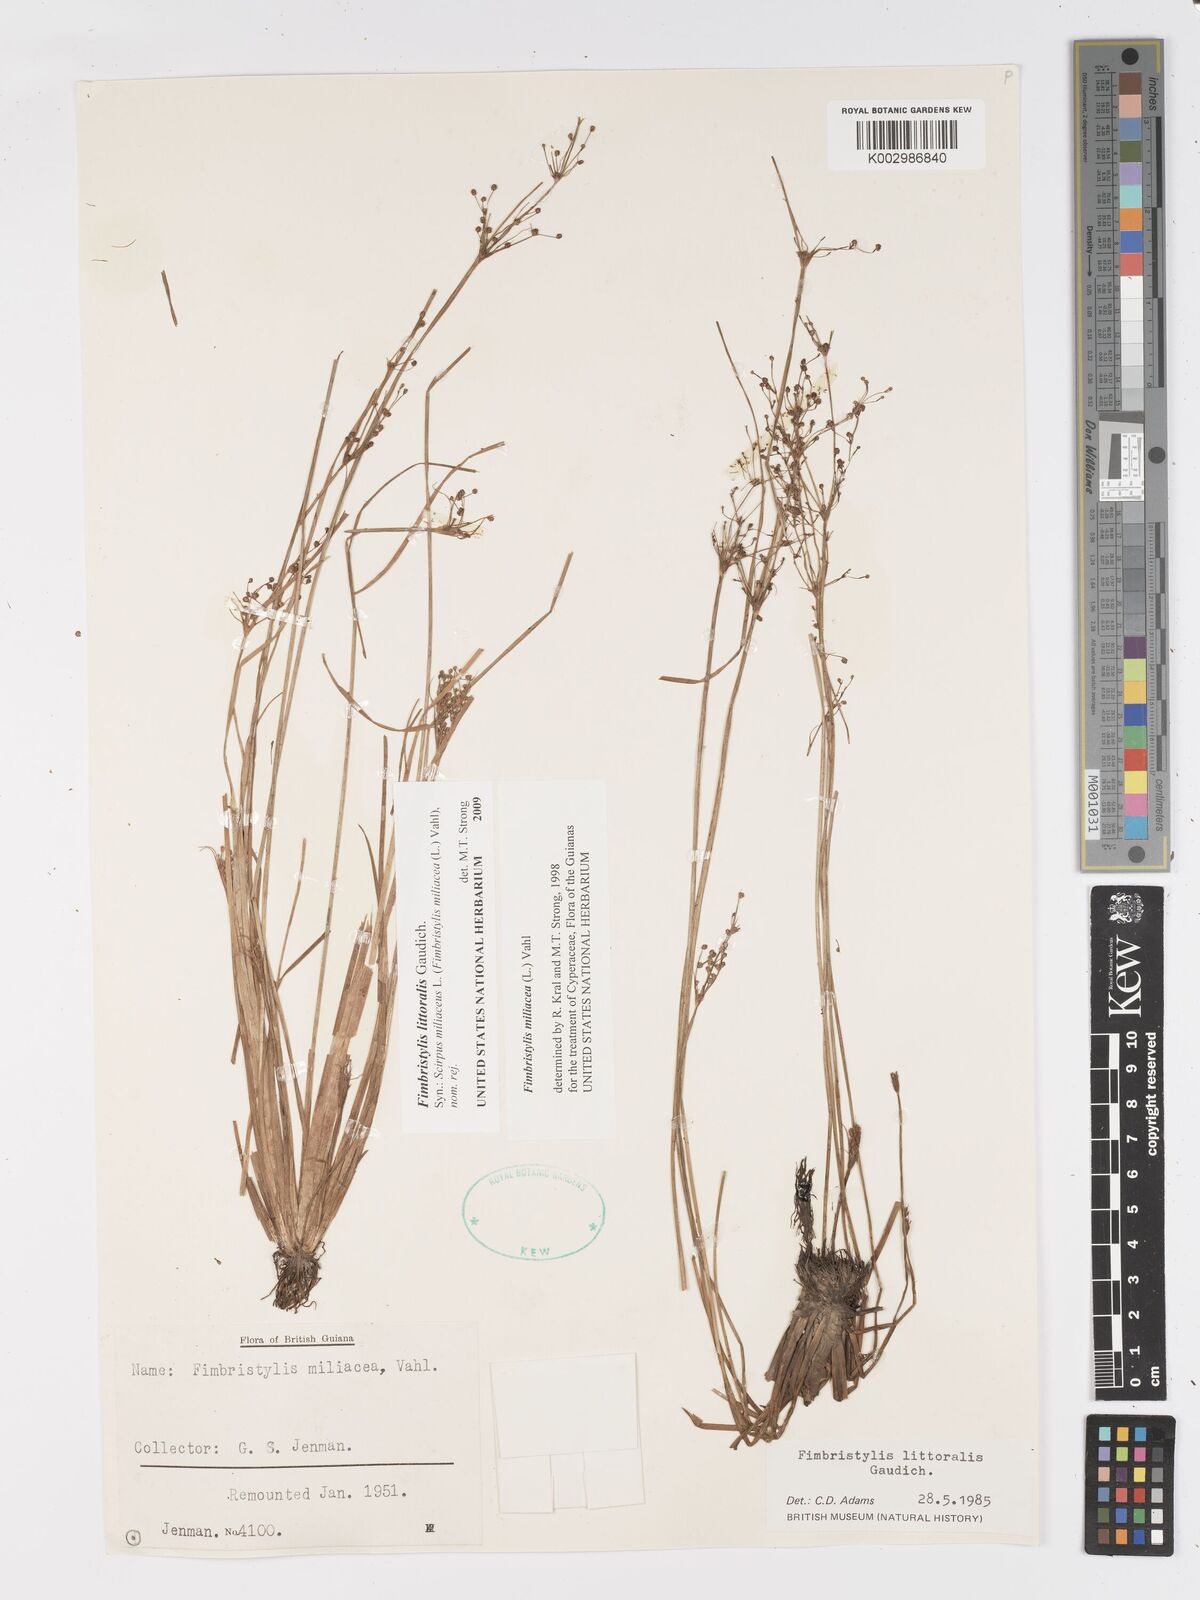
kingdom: Plantae
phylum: Tracheophyta
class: Liliopsida
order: Poales
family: Cyperaceae
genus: Fimbristylis
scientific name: Fimbristylis littoralis
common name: Fimbry
